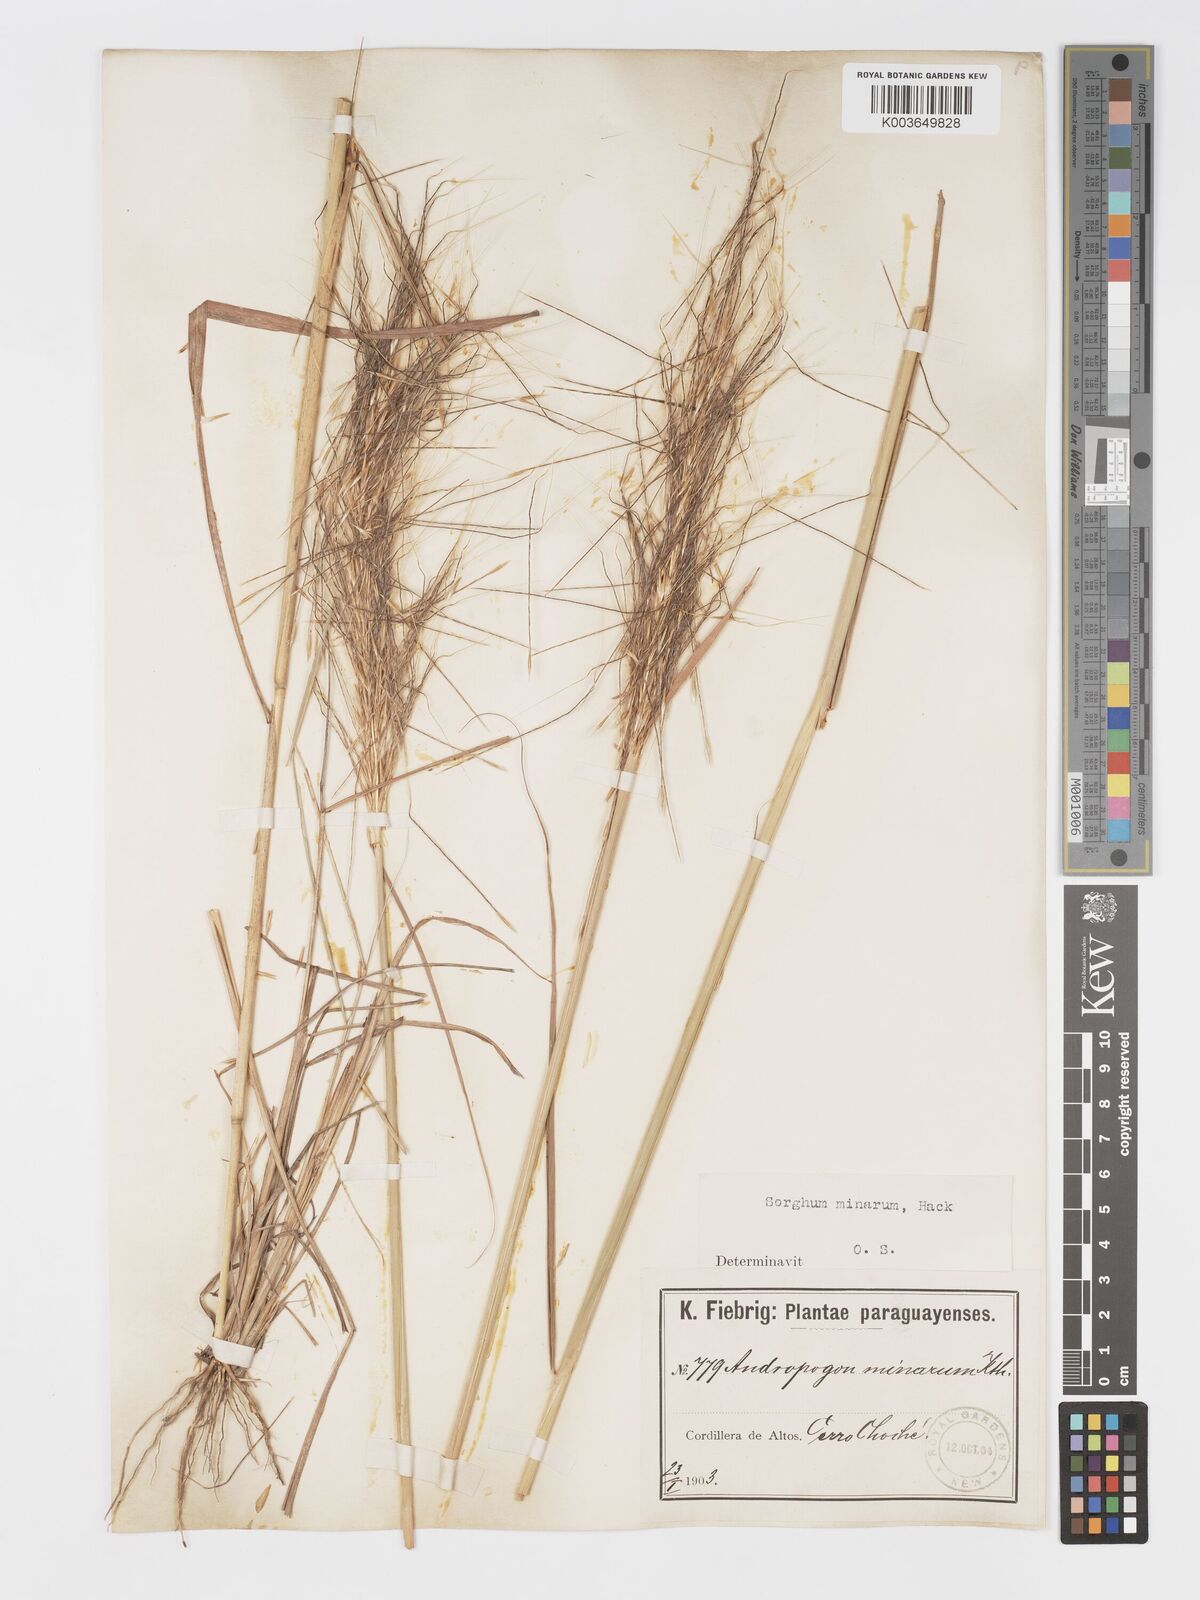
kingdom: Plantae
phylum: Tracheophyta
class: Liliopsida
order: Poales
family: Poaceae
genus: Sorghastrum
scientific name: Sorghastrum minarum
